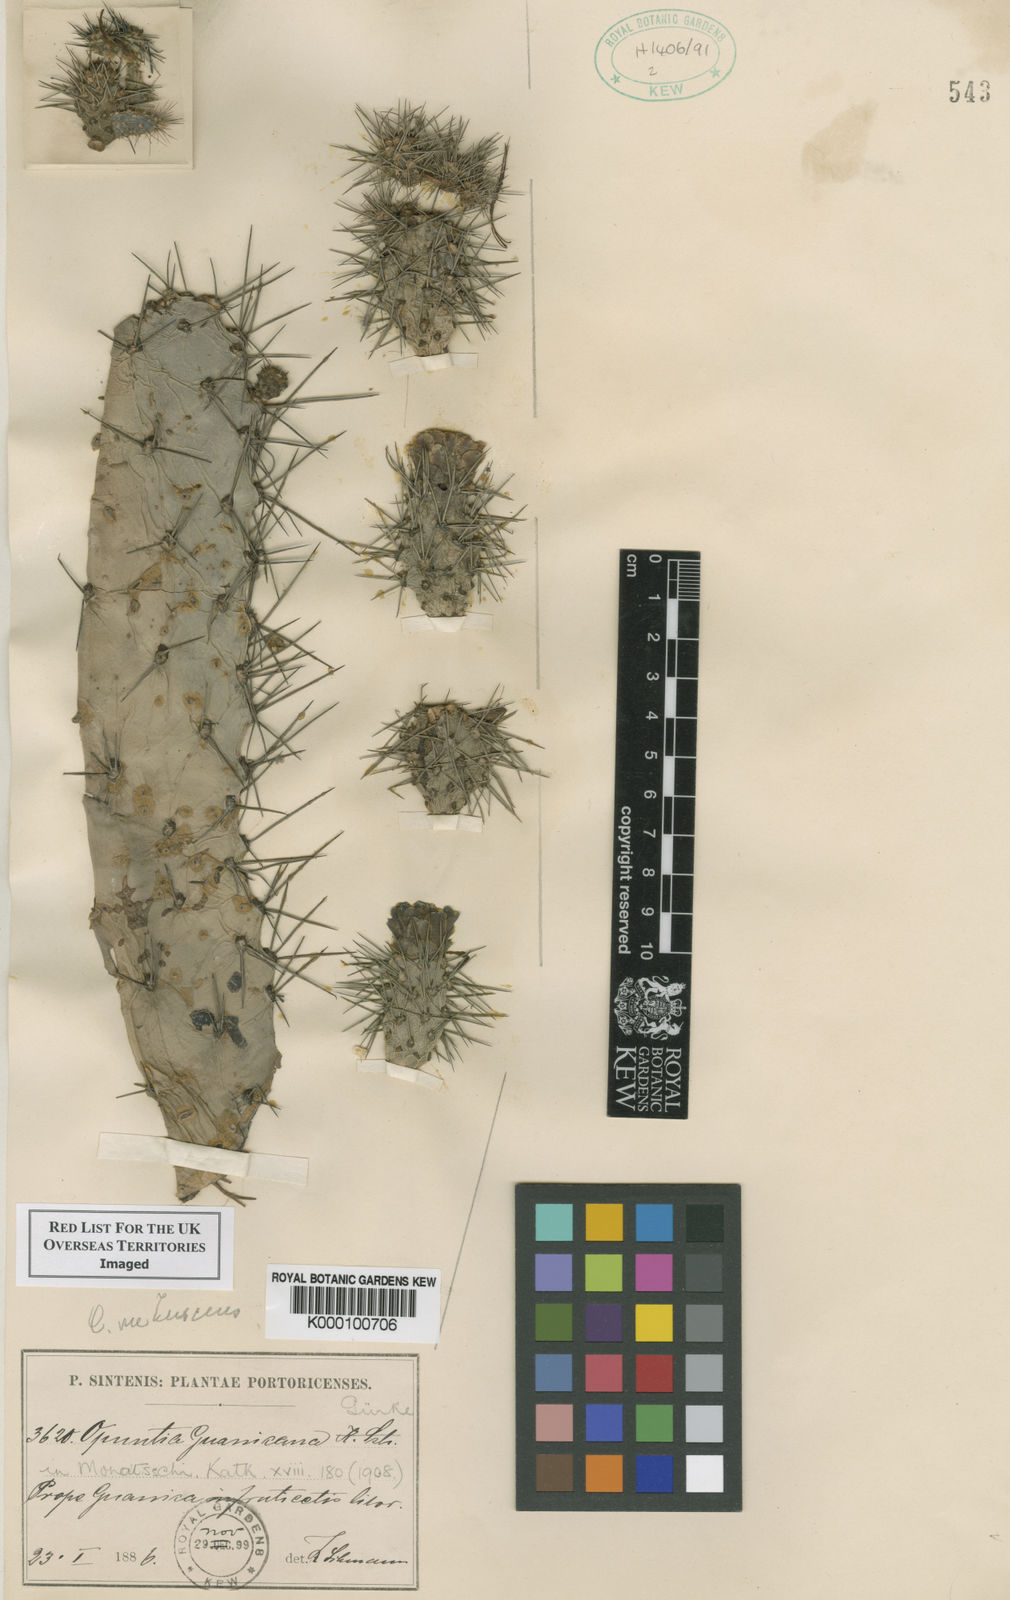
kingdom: Plantae
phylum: Tracheophyta
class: Magnoliopsida
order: Caryophyllales
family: Cactaceae
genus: Consolea
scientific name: Consolea rubescens
